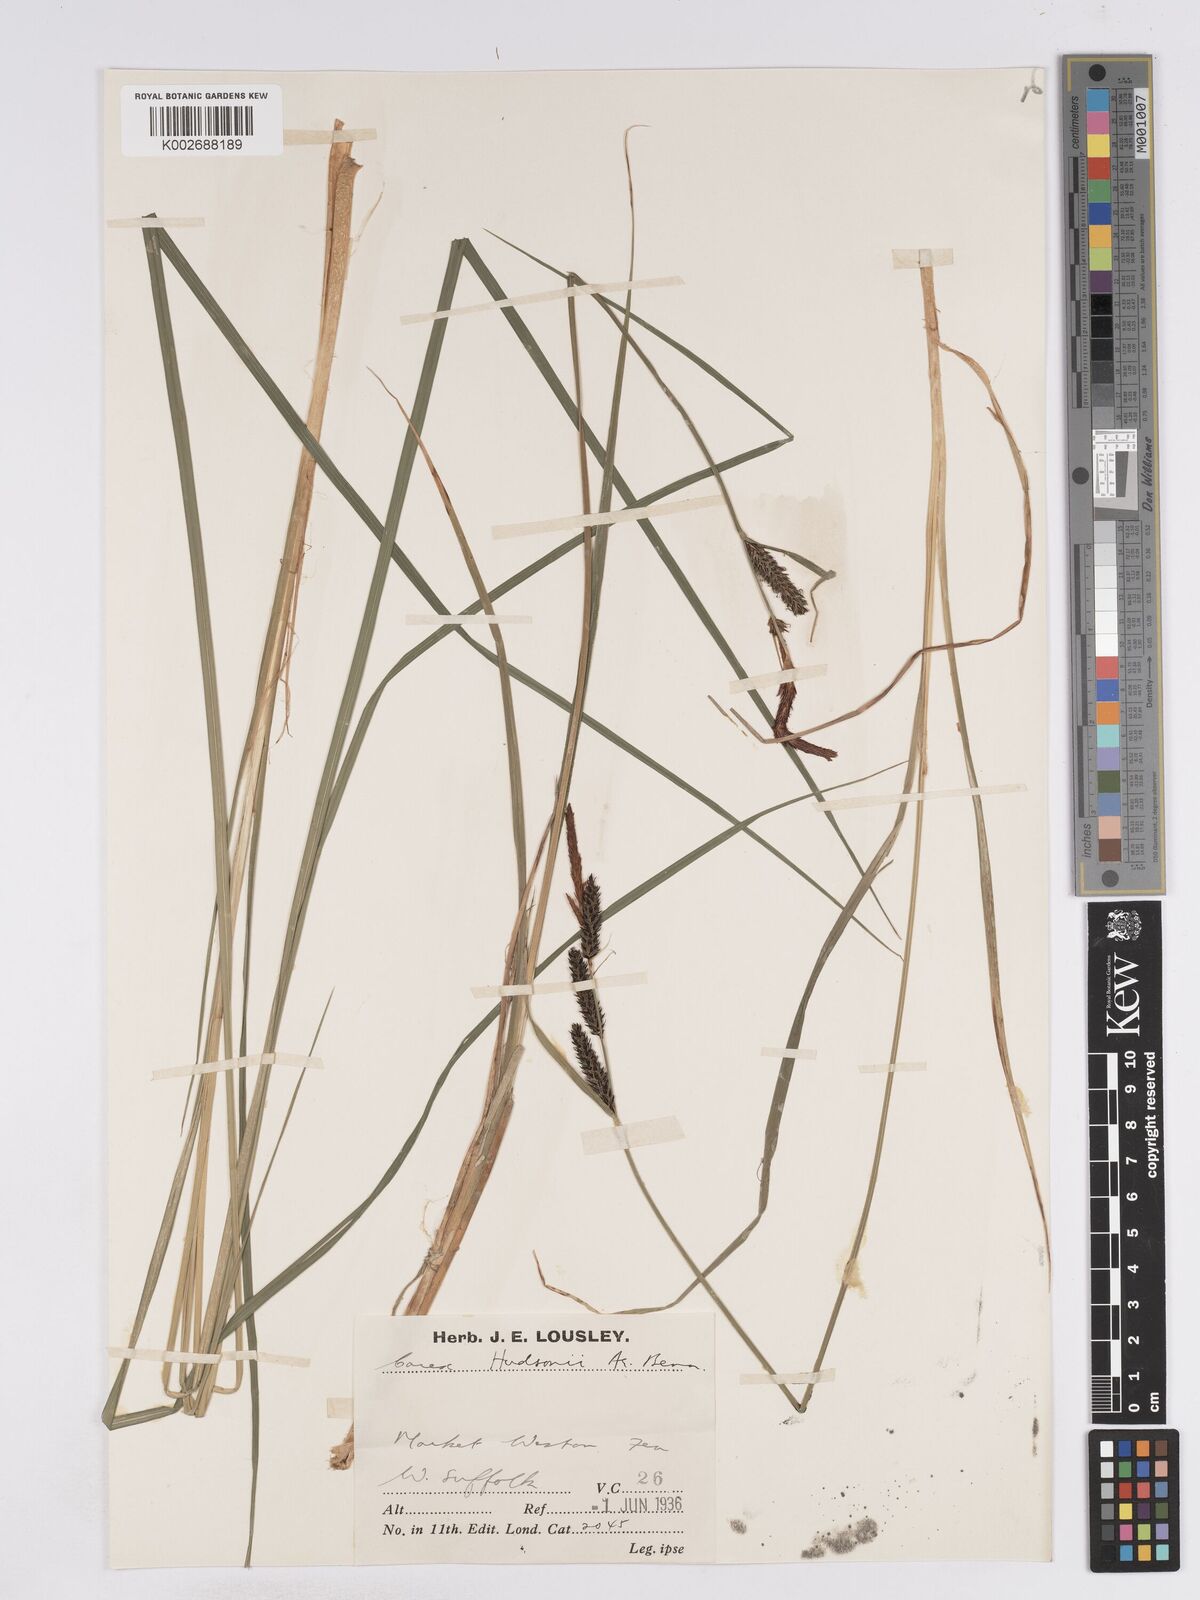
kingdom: Plantae
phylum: Tracheophyta
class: Liliopsida
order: Poales
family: Cyperaceae
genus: Carex
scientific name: Carex elata
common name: Tufted sedge
